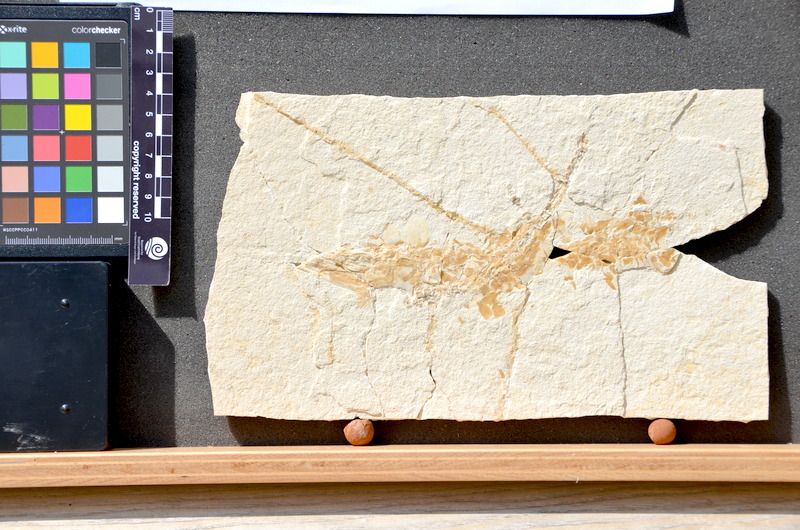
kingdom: Animalia
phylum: Chordata
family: Aspidorhynchidae
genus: Belonostomus
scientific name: Belonostomus
